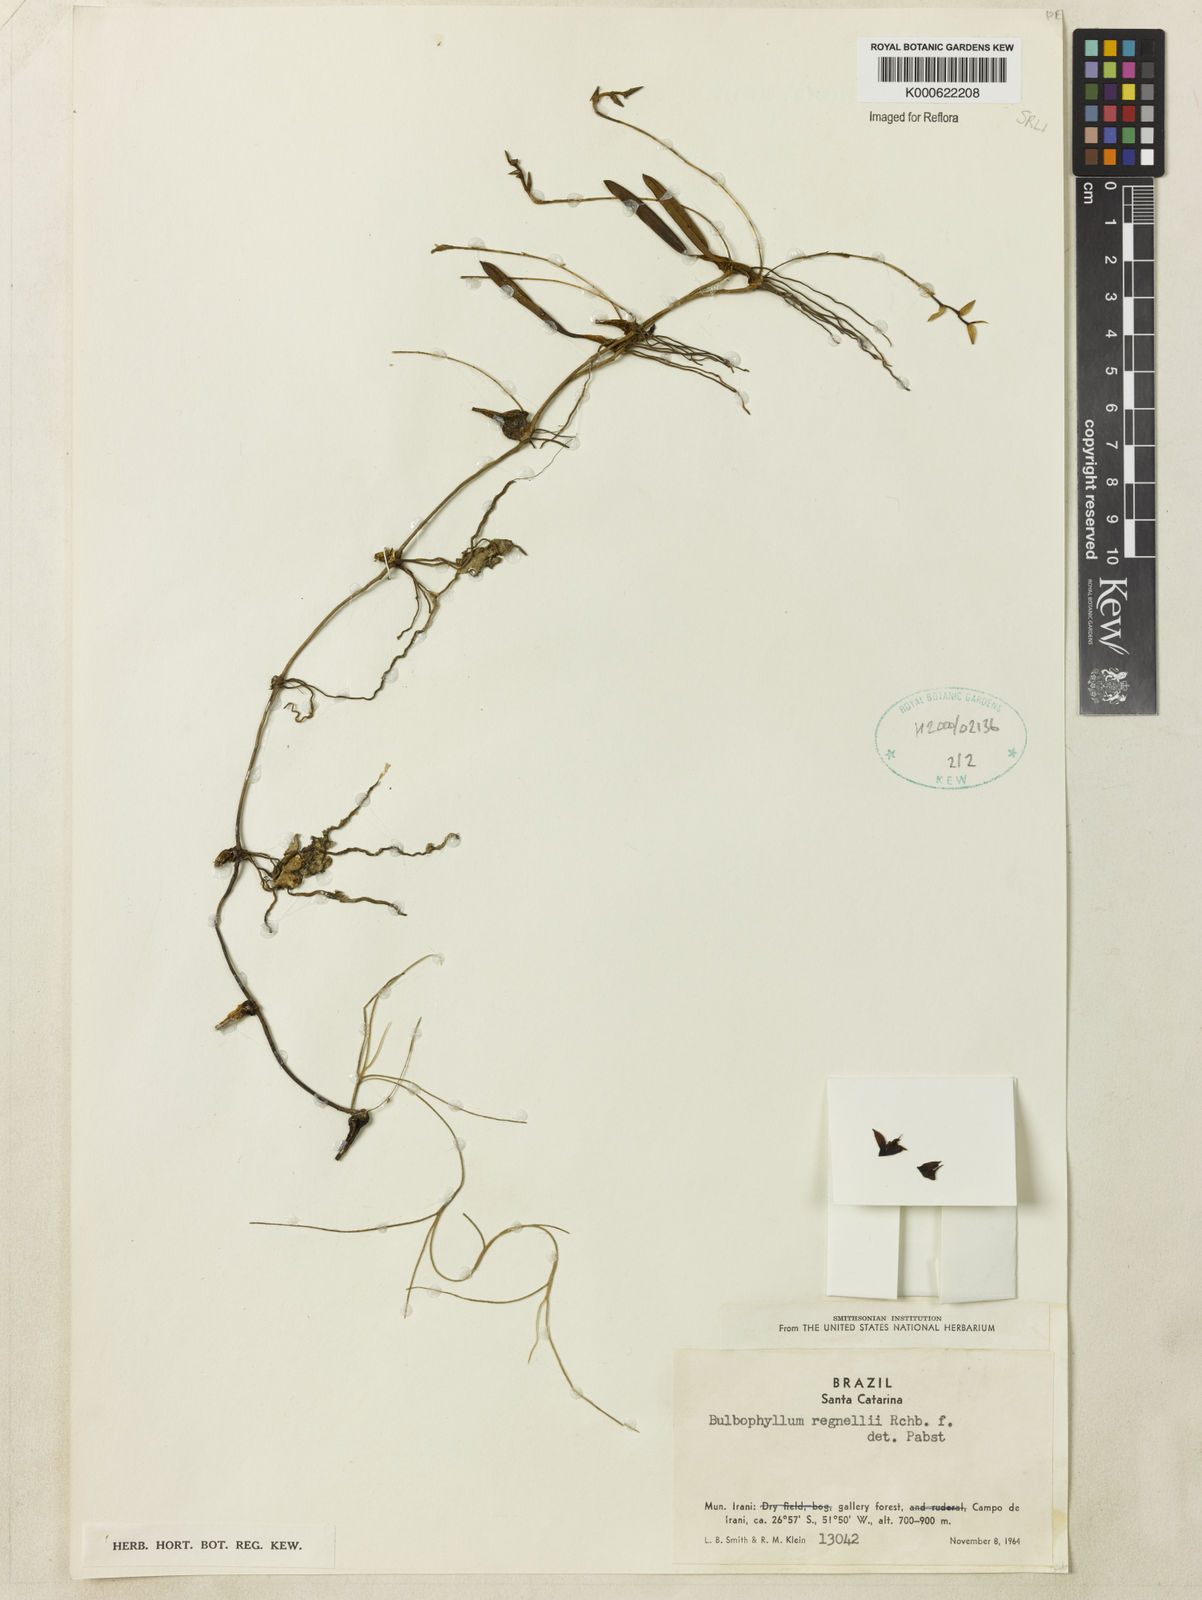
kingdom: Plantae
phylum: Tracheophyta
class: Liliopsida
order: Asparagales
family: Orchidaceae
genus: Bulbophyllum
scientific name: Bulbophyllum regnellii
